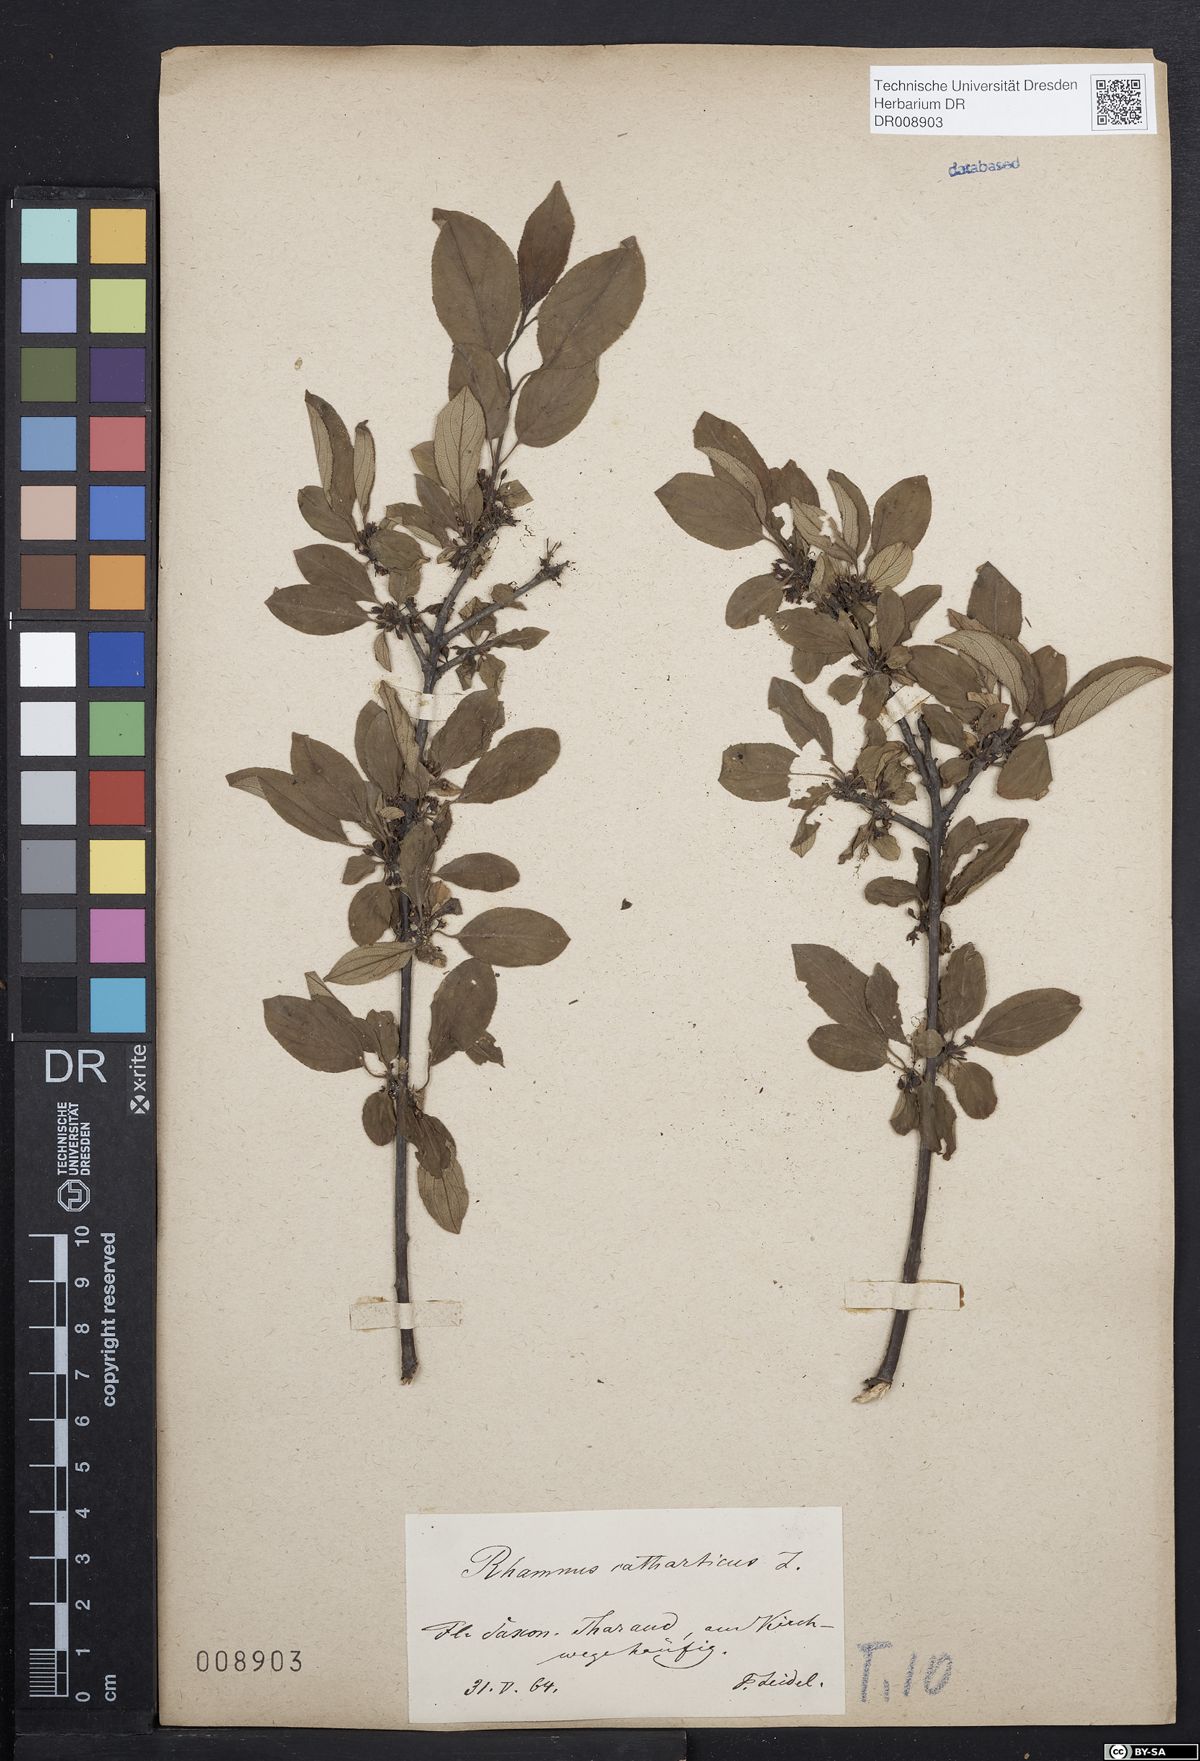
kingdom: Plantae
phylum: Tracheophyta
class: Magnoliopsida
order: Rosales
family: Rhamnaceae
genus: Rhamnus
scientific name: Rhamnus cathartica
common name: Common buckthorn
